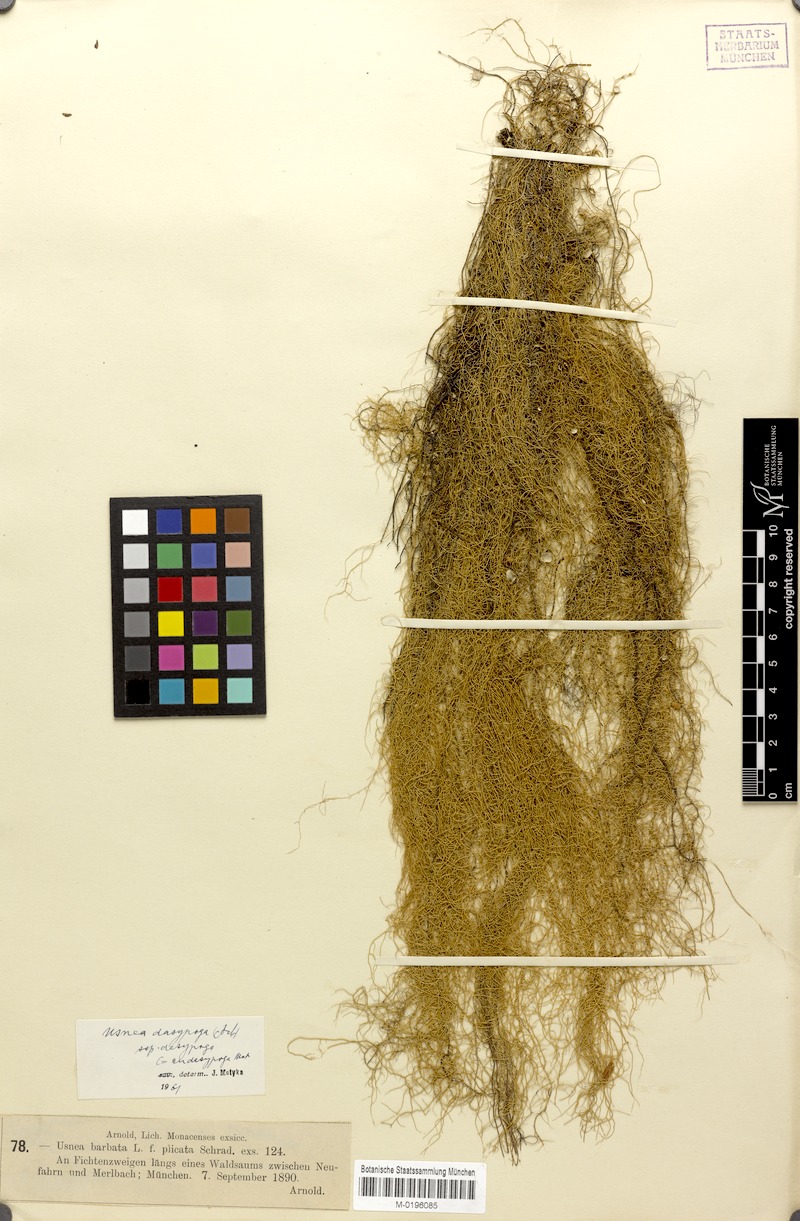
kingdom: Fungi
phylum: Ascomycota
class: Lecanoromycetes
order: Lecanorales
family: Parmeliaceae
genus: Usnea
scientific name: Usnea dasopoga
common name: Fishbone beard lichen
